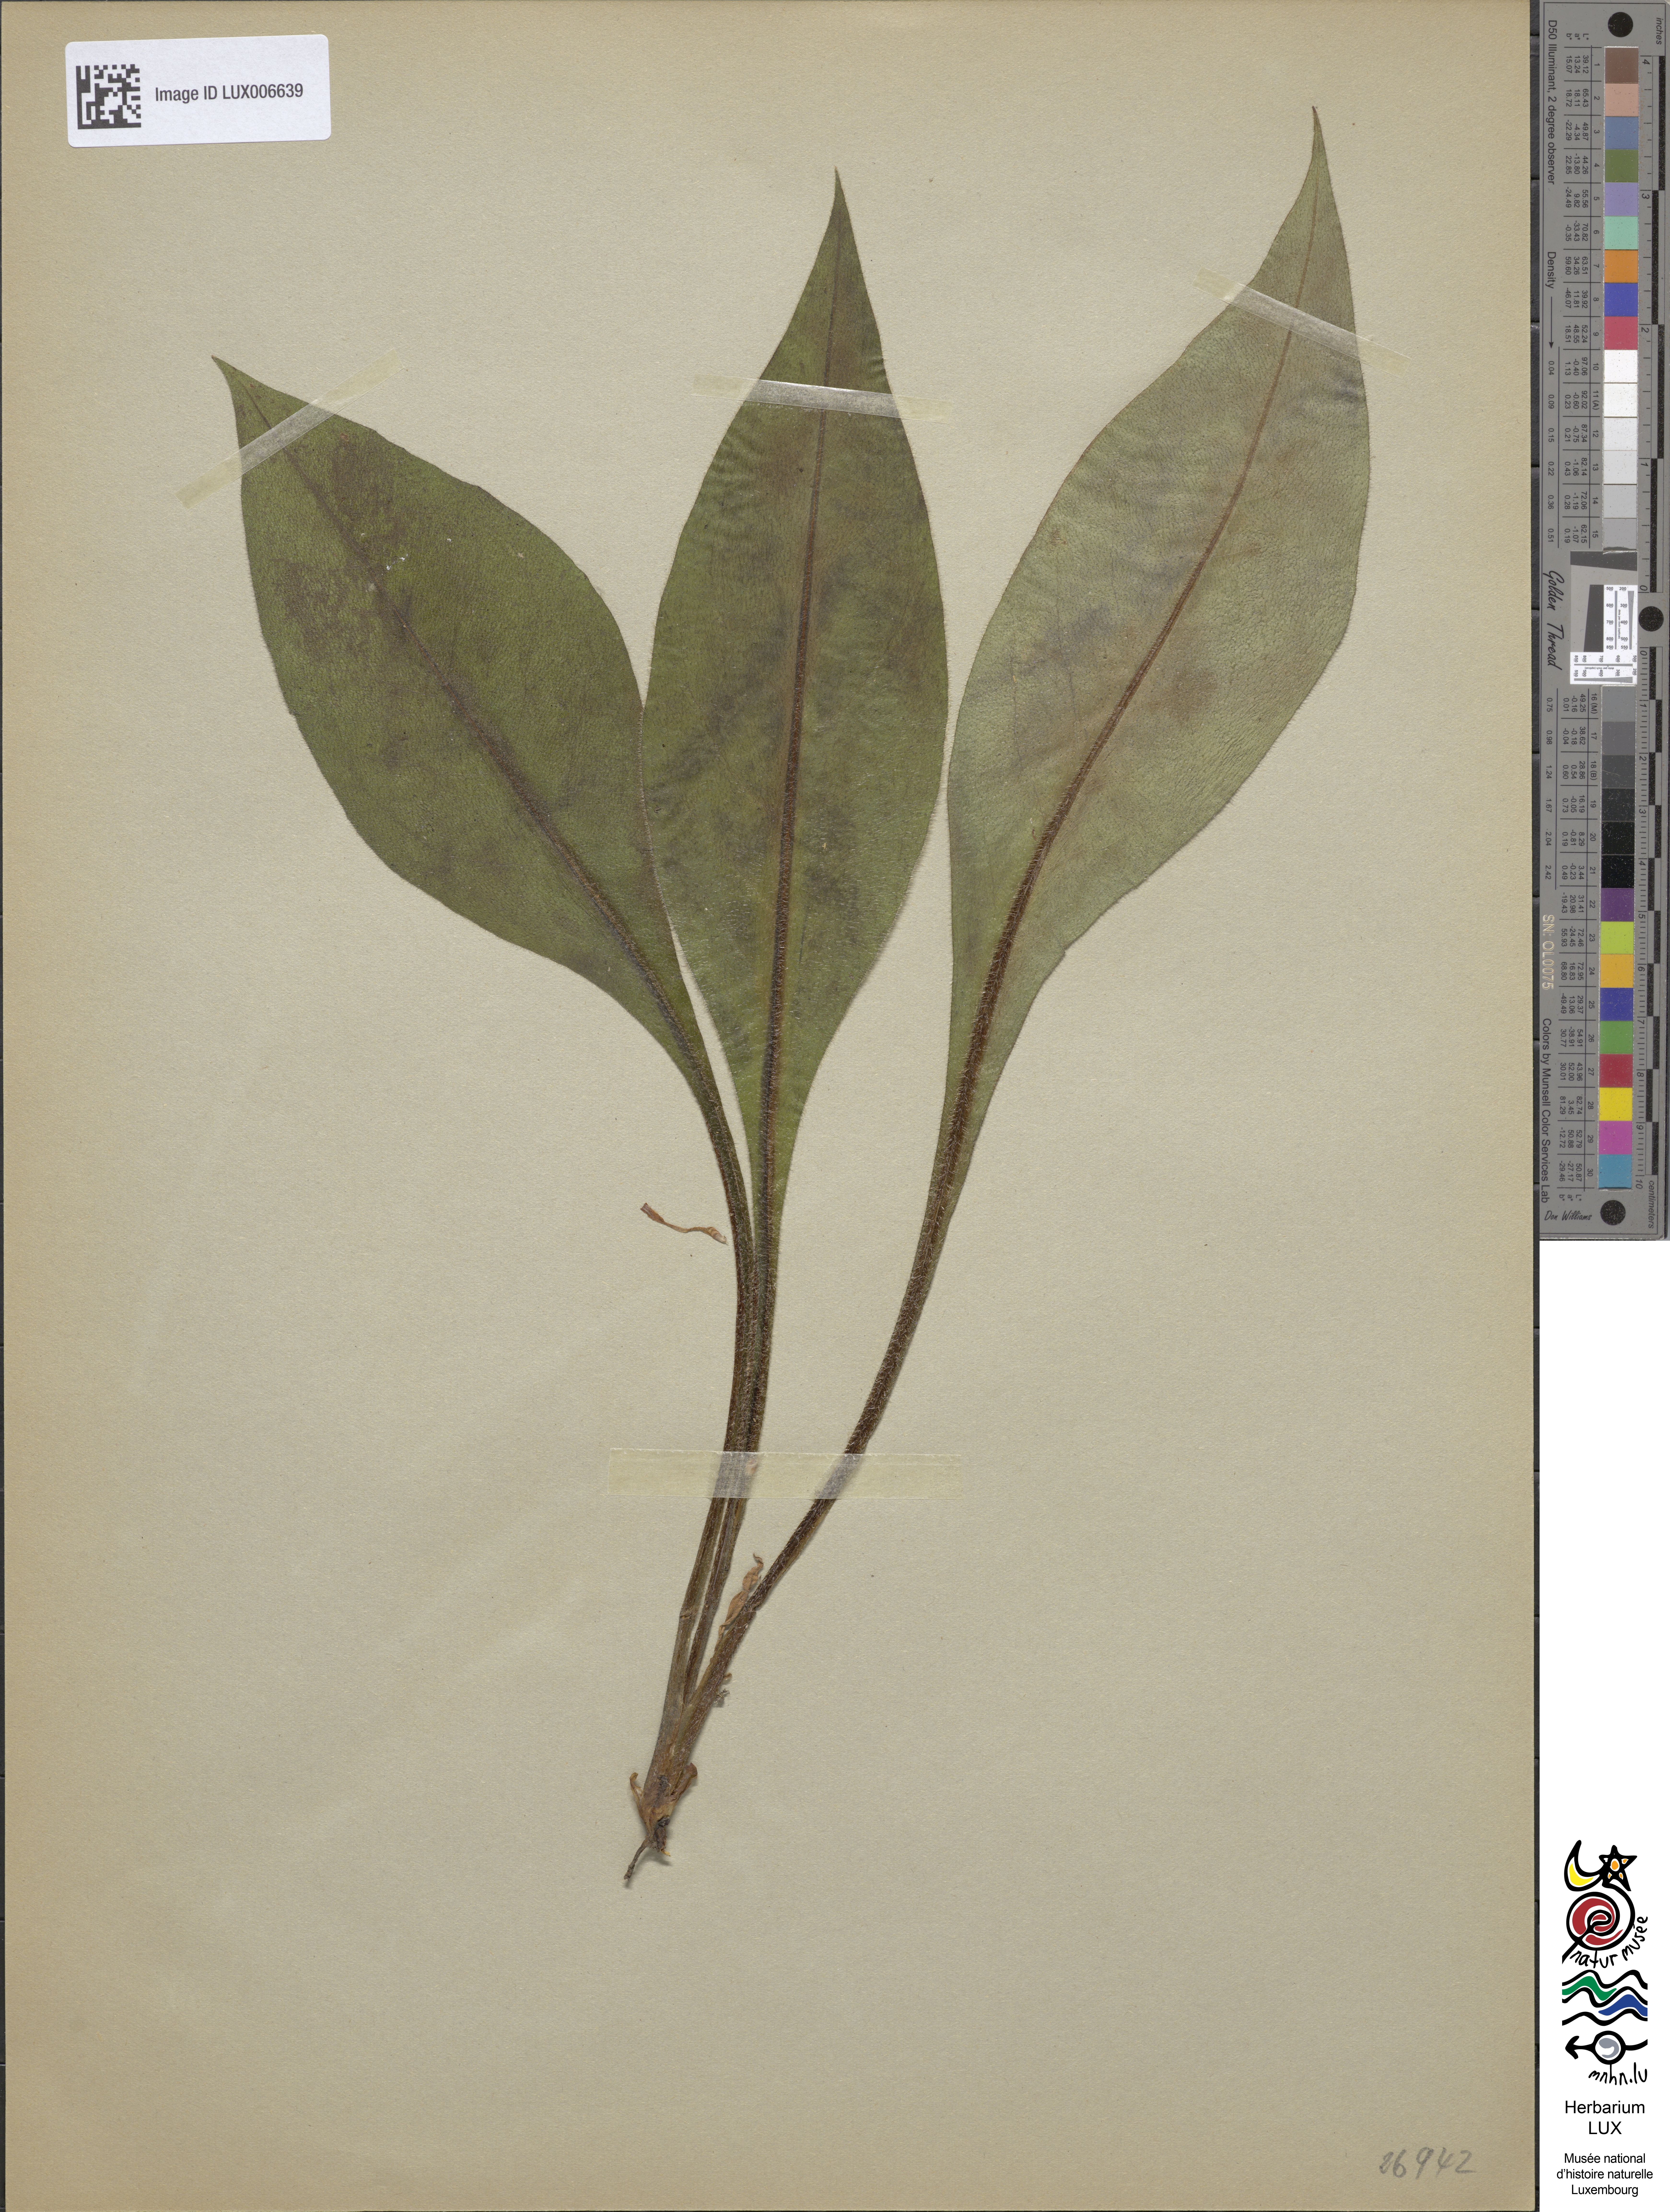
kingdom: Plantae
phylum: Tracheophyta
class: Magnoliopsida
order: Boraginales
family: Boraginaceae
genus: Pulmonaria
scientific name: Pulmonaria montana
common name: Mountain lungwort
